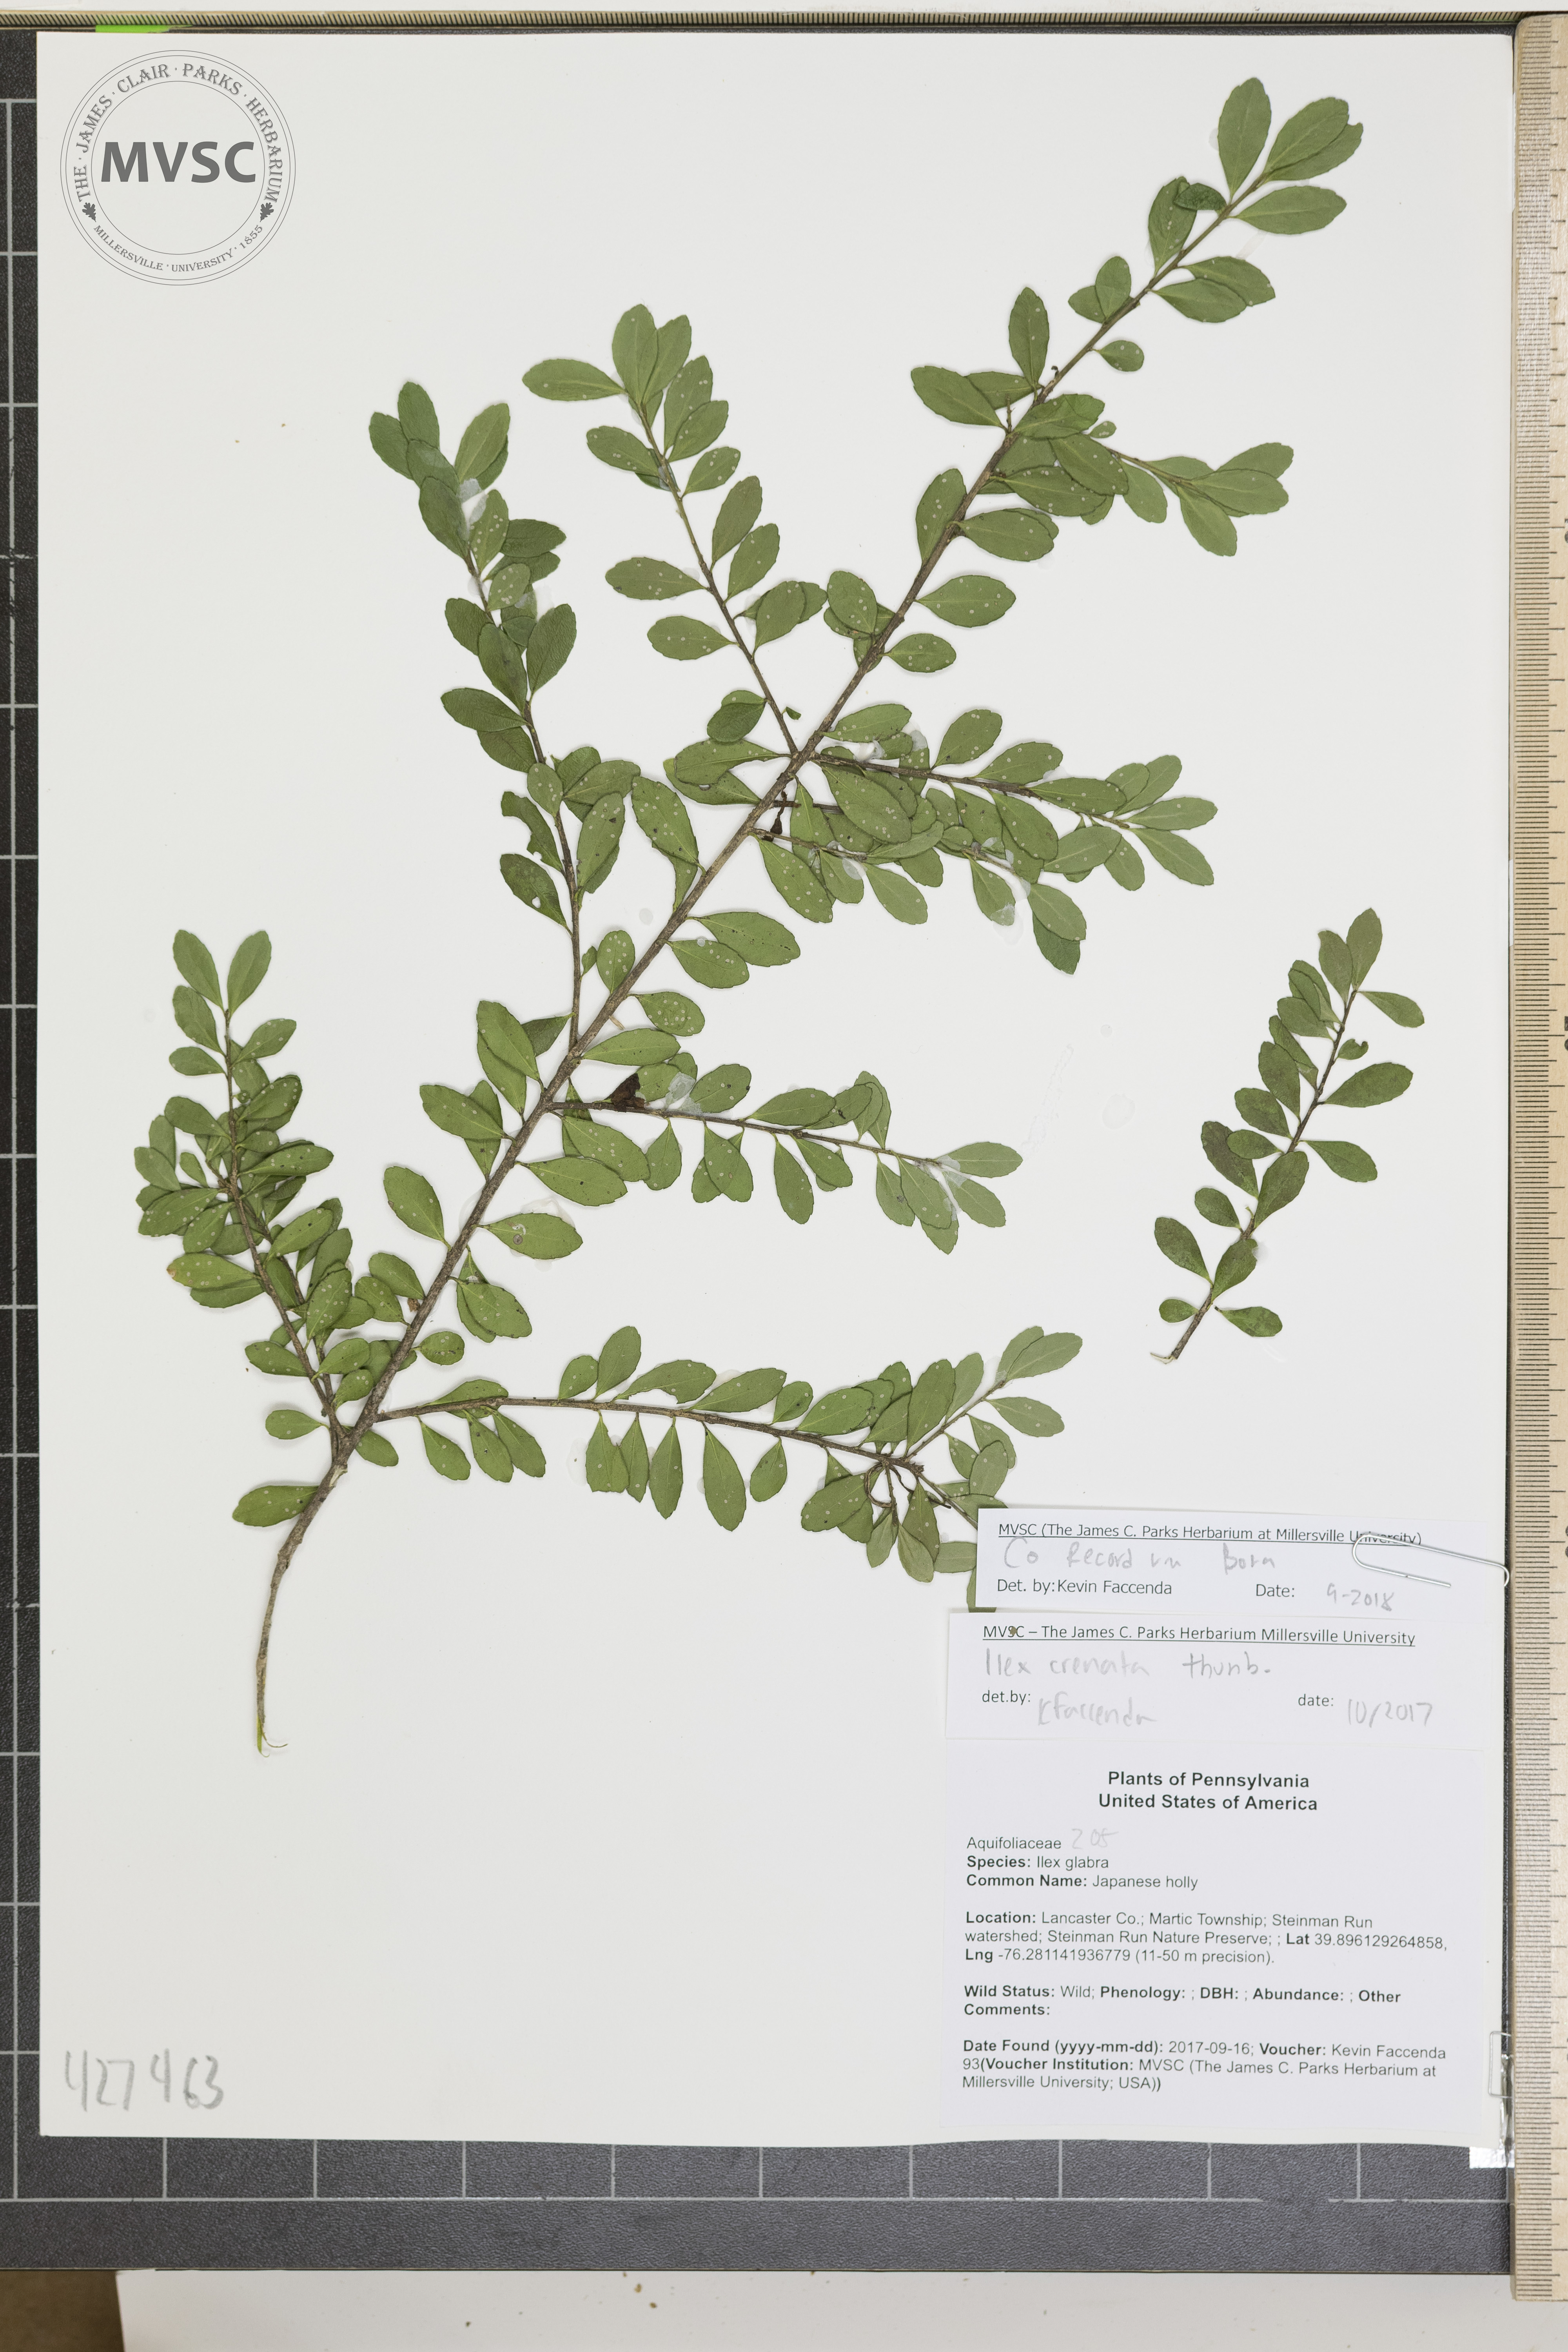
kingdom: Plantae
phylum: Tracheophyta
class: Magnoliopsida
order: Aquifoliales
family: Aquifoliaceae
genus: Ilex
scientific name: Ilex crenata
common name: Japanese holly
